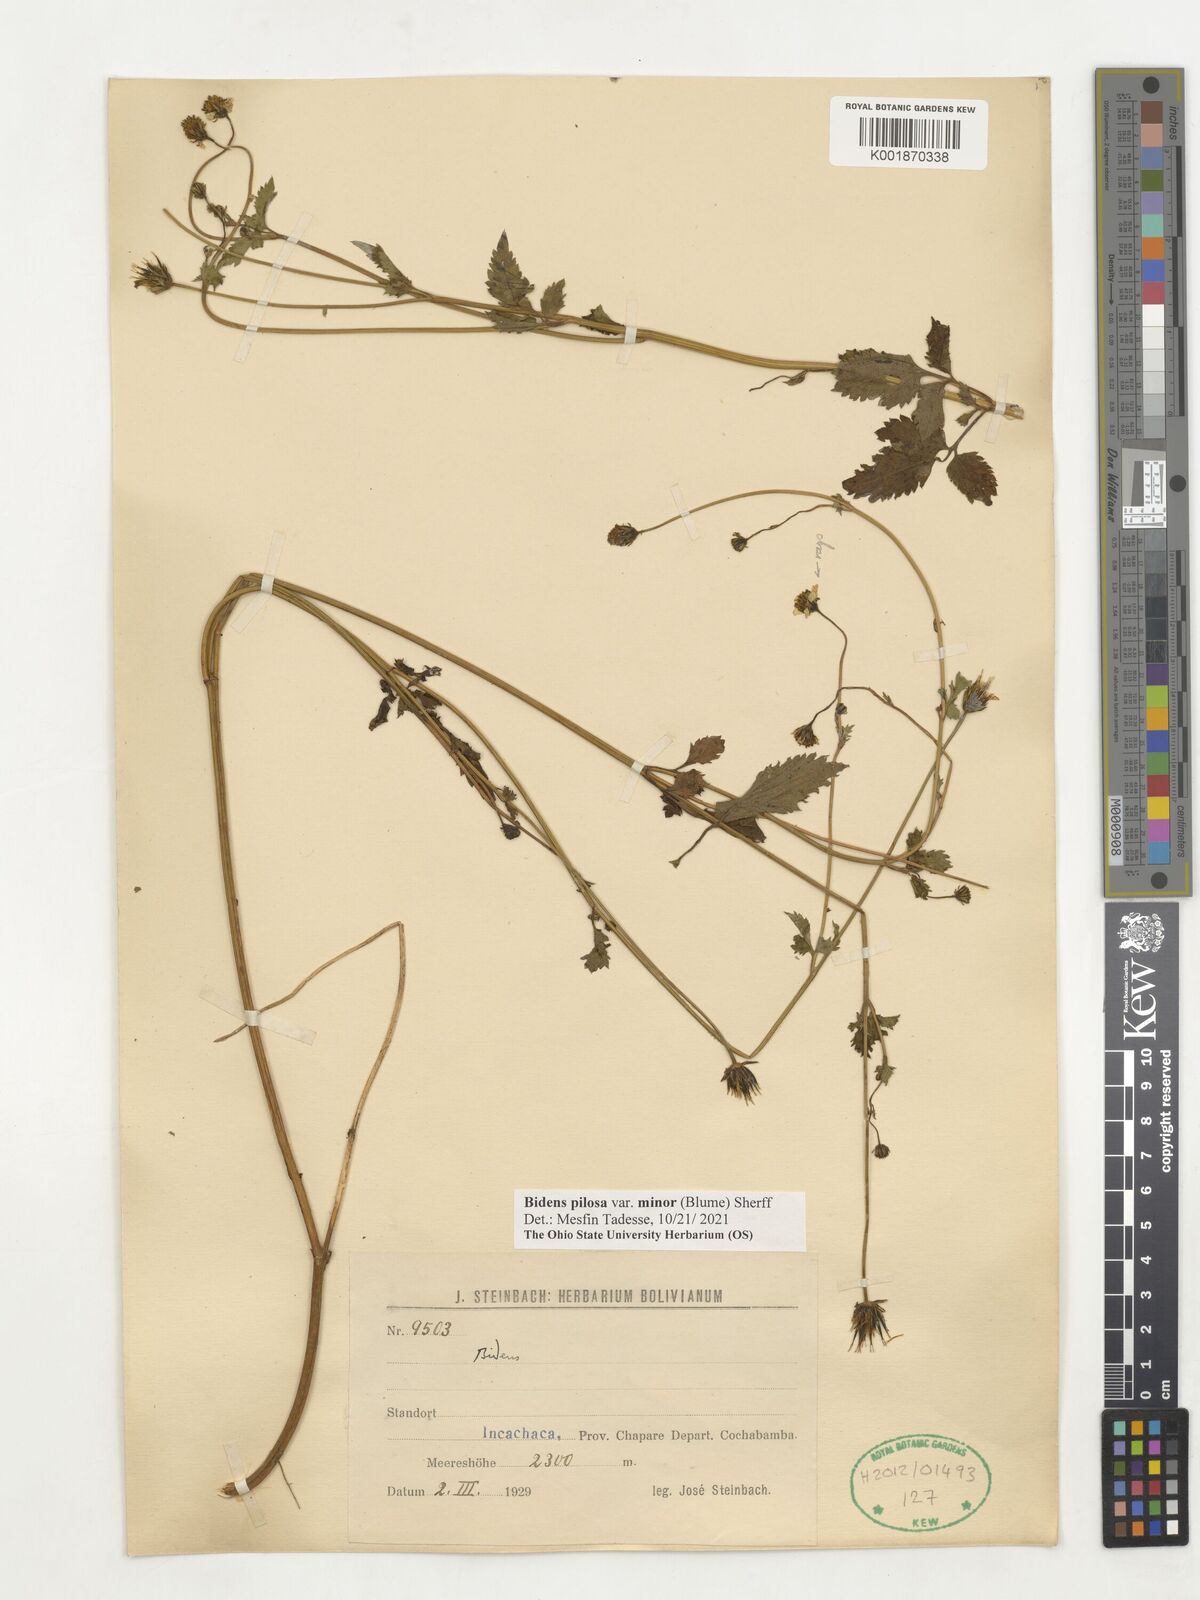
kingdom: Plantae
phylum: Tracheophyta
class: Magnoliopsida
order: Asterales
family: Asteraceae
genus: Bidens
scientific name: Bidens pilosa
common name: Black-jack
